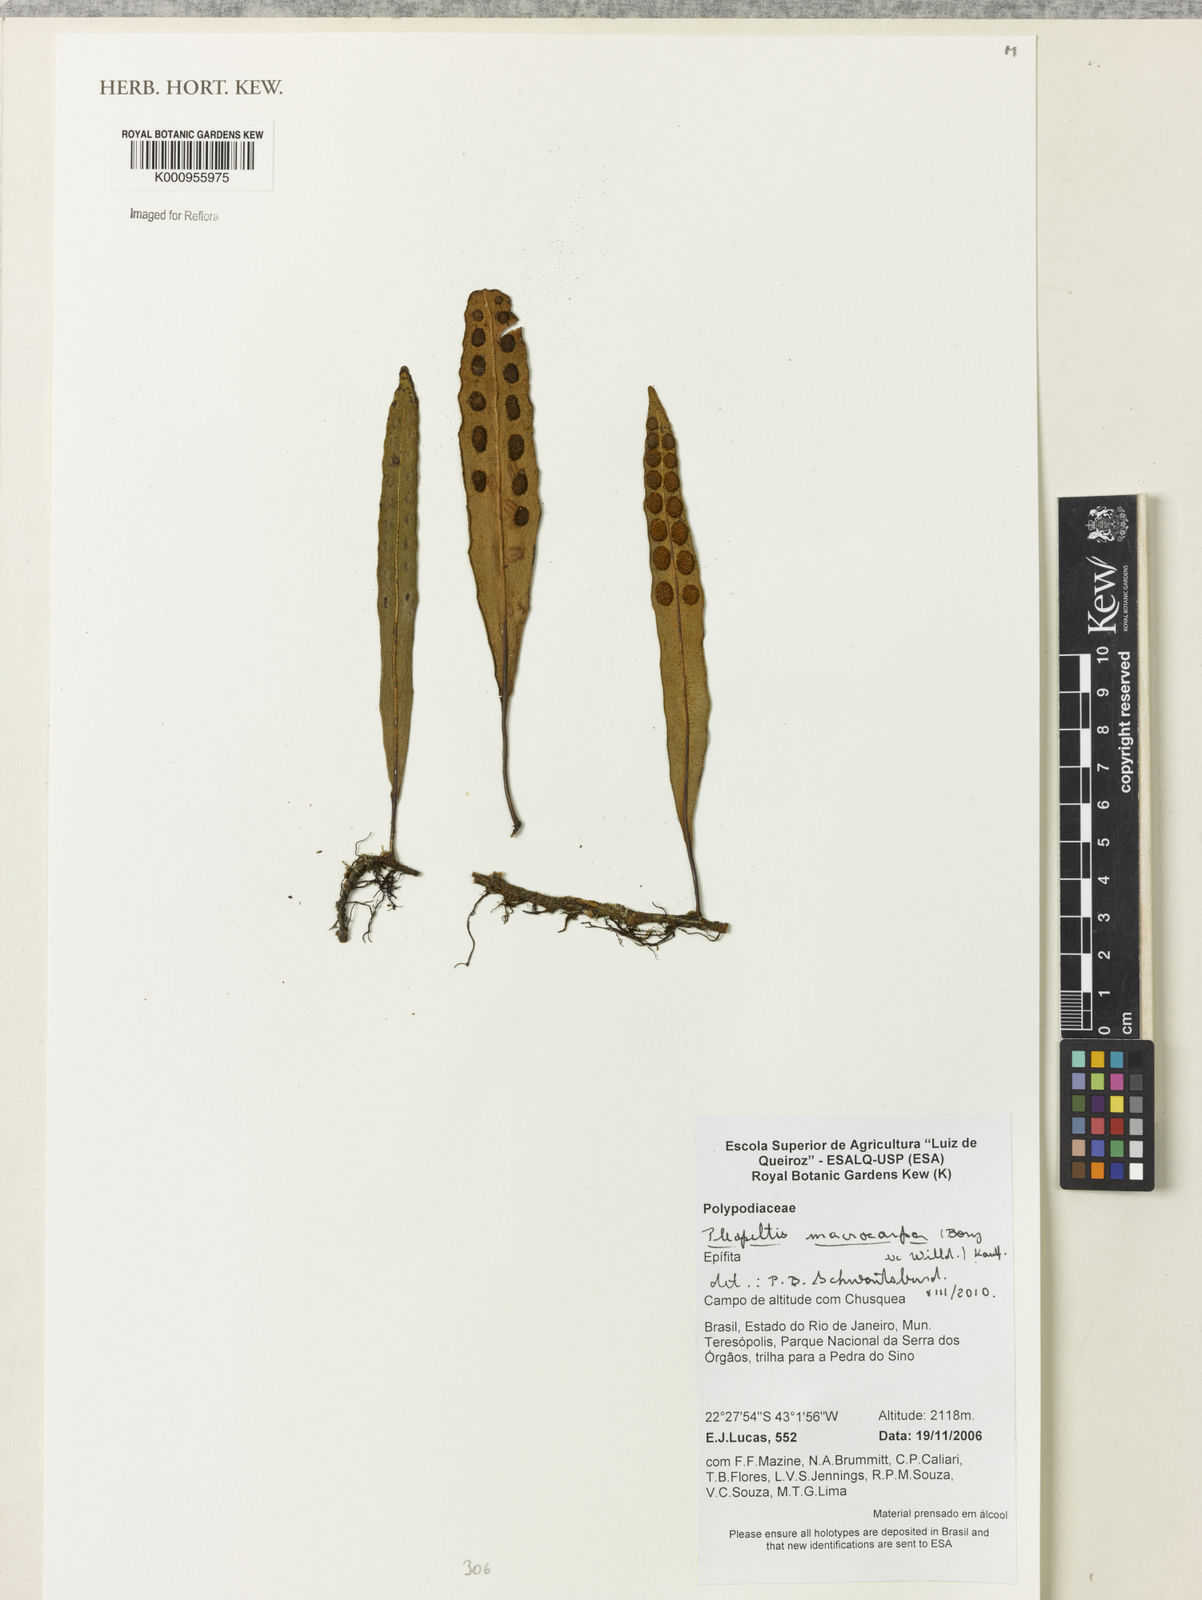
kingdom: Plantae
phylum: Tracheophyta
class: Polypodiopsida
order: Polypodiales
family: Polypodiaceae
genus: Pleopeltis
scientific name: Pleopeltis
